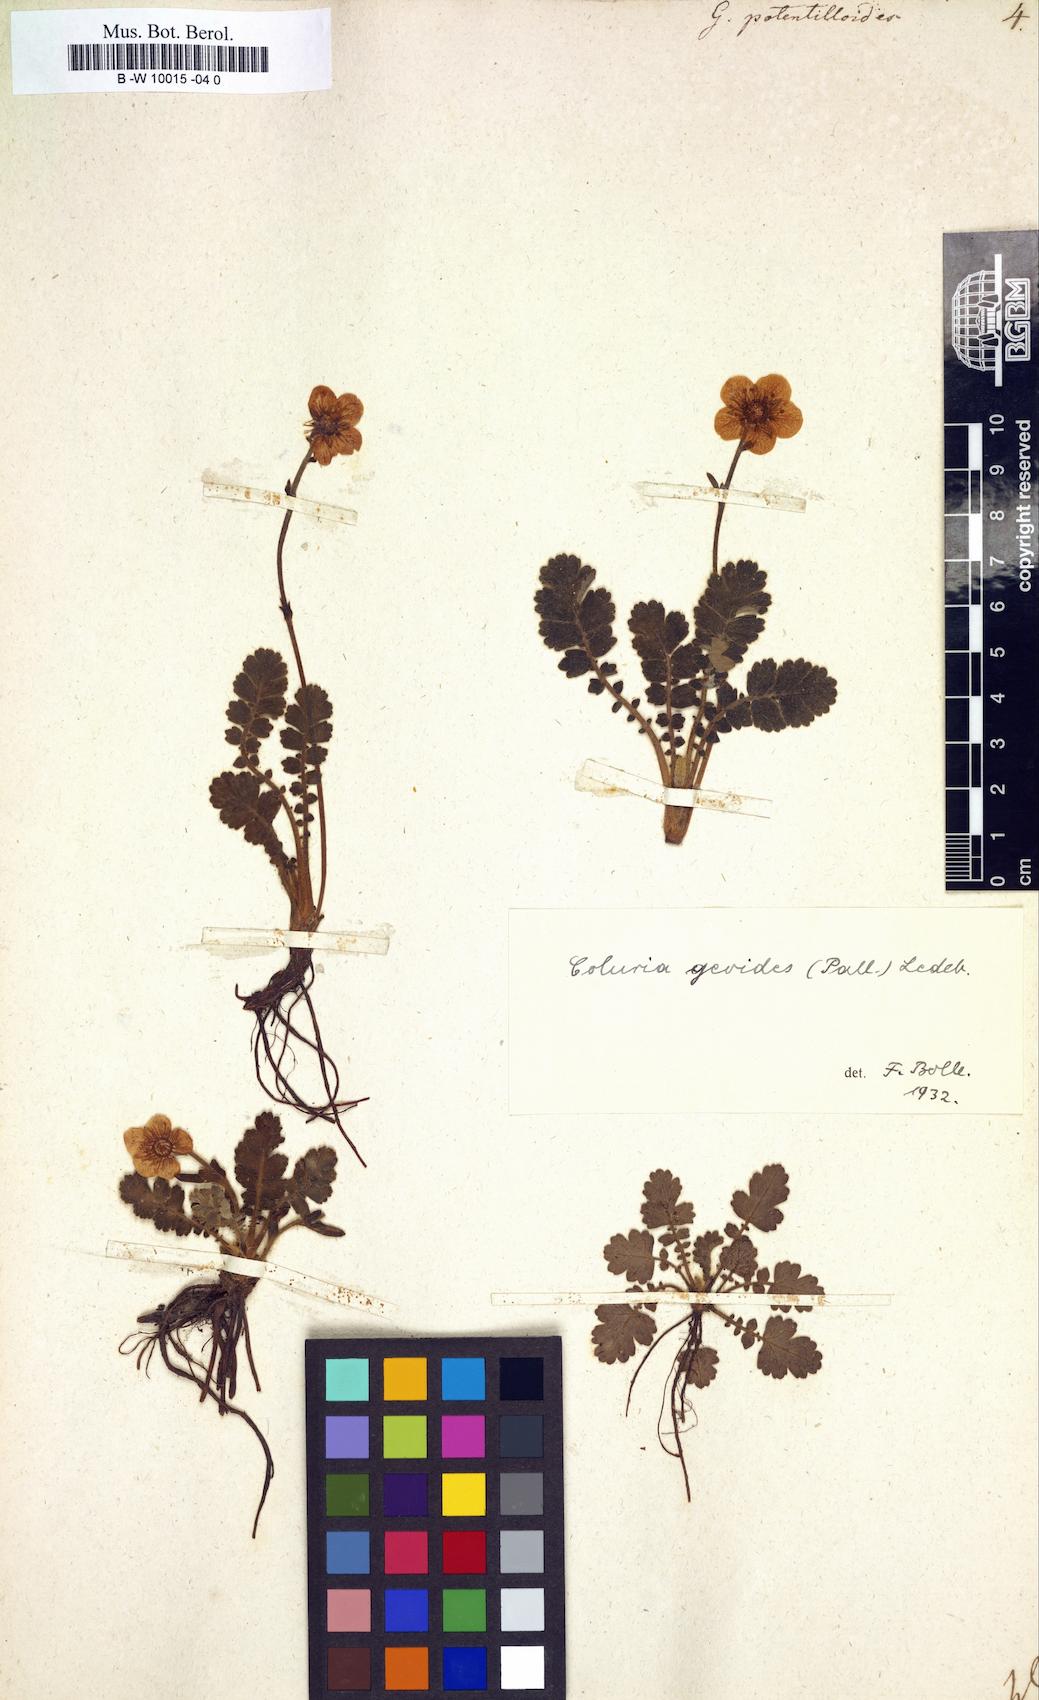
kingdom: Plantae
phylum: Tracheophyta
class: Magnoliopsida
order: Rosales
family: Rosaceae
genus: Drymocallis
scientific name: Drymocallis geoides
